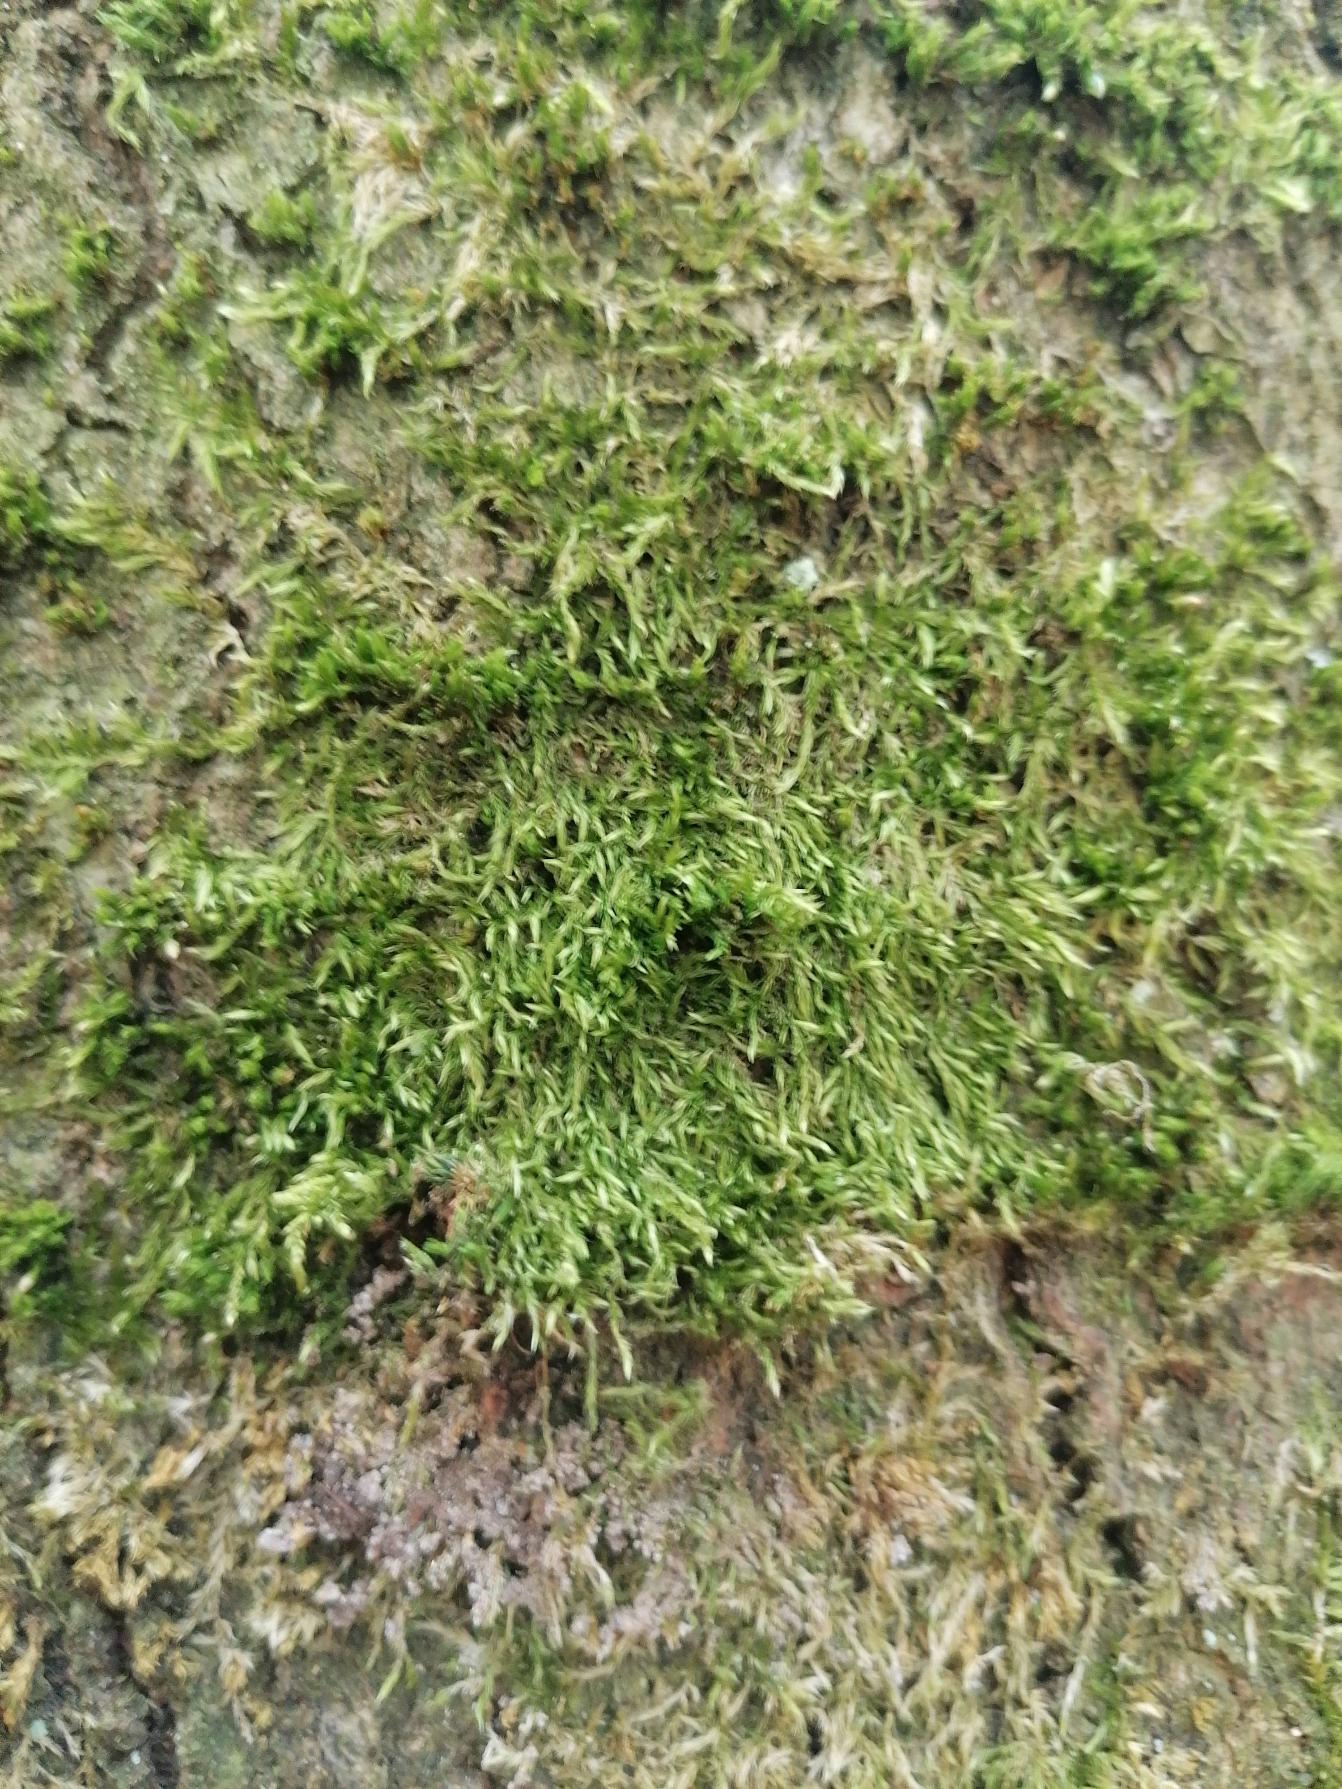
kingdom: Plantae
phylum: Bryophyta
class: Bryopsida
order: Hypnales
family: Hypnaceae
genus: Hypnum
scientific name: Hypnum
